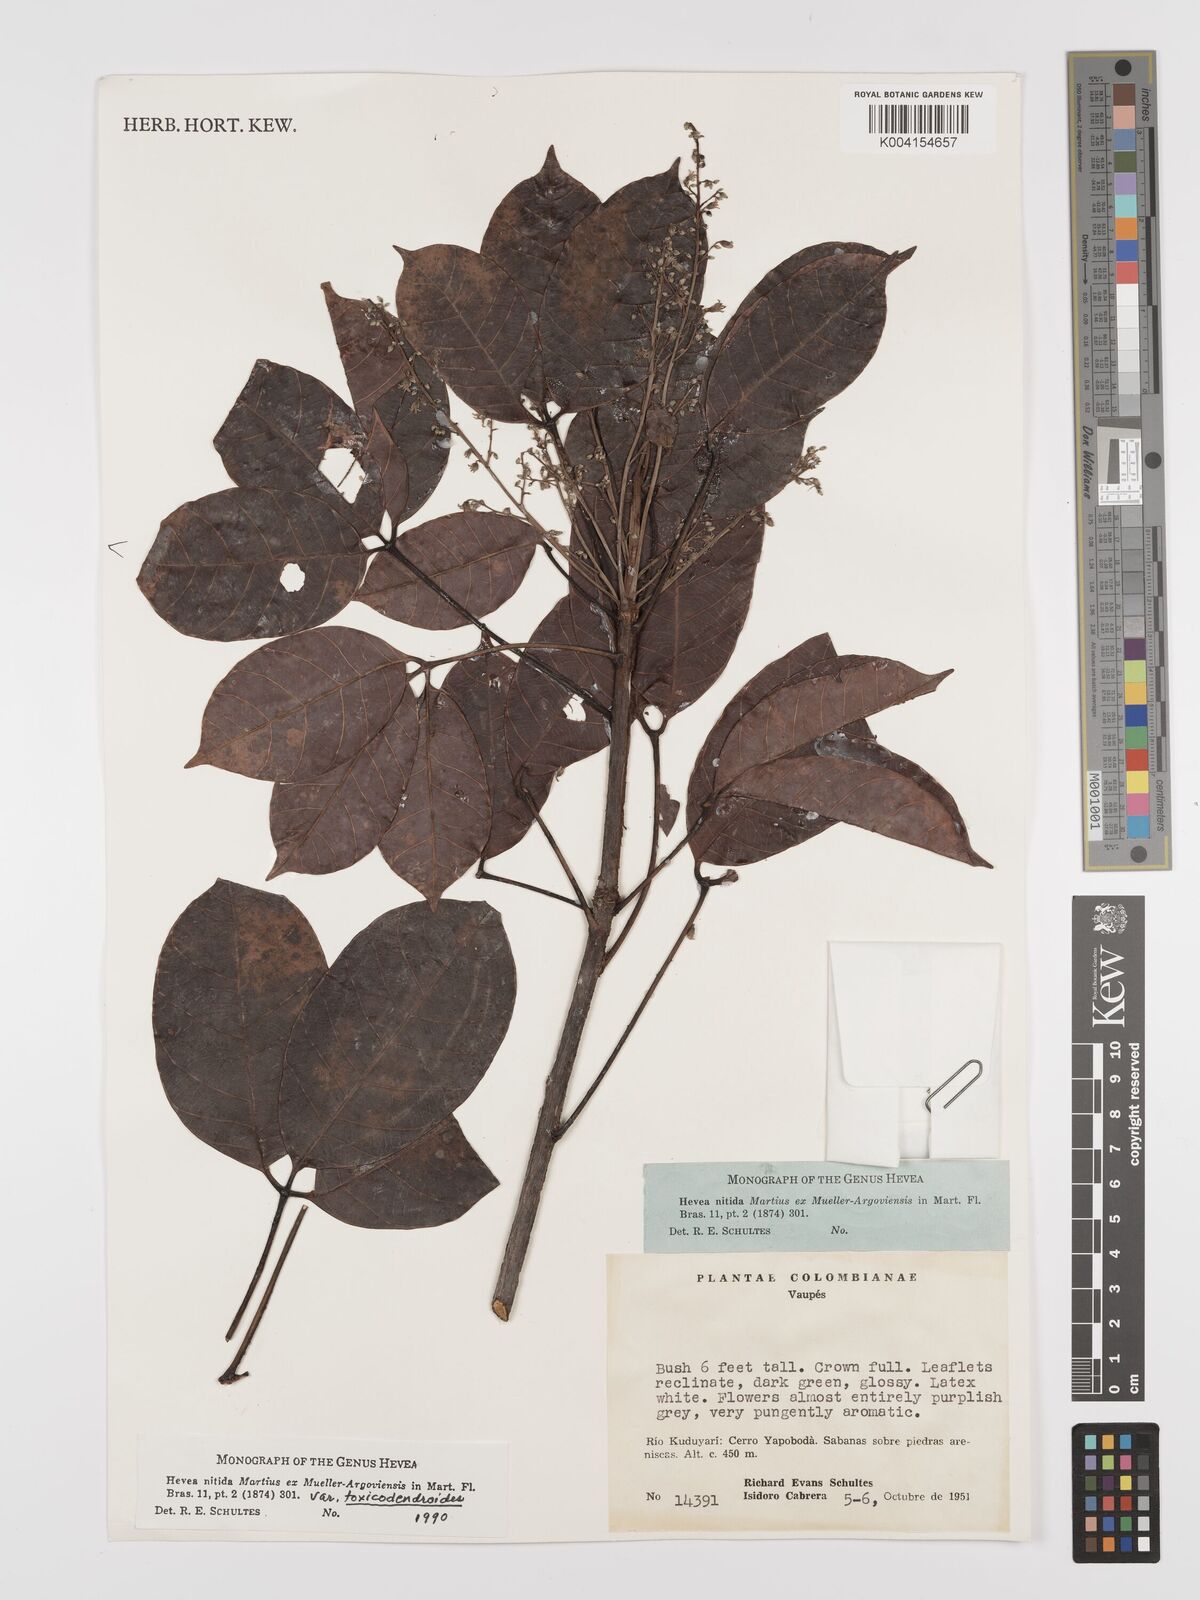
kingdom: Plantae
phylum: Tracheophyta
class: Magnoliopsida
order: Malpighiales
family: Euphorbiaceae
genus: Hevea
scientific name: Hevea nitida
